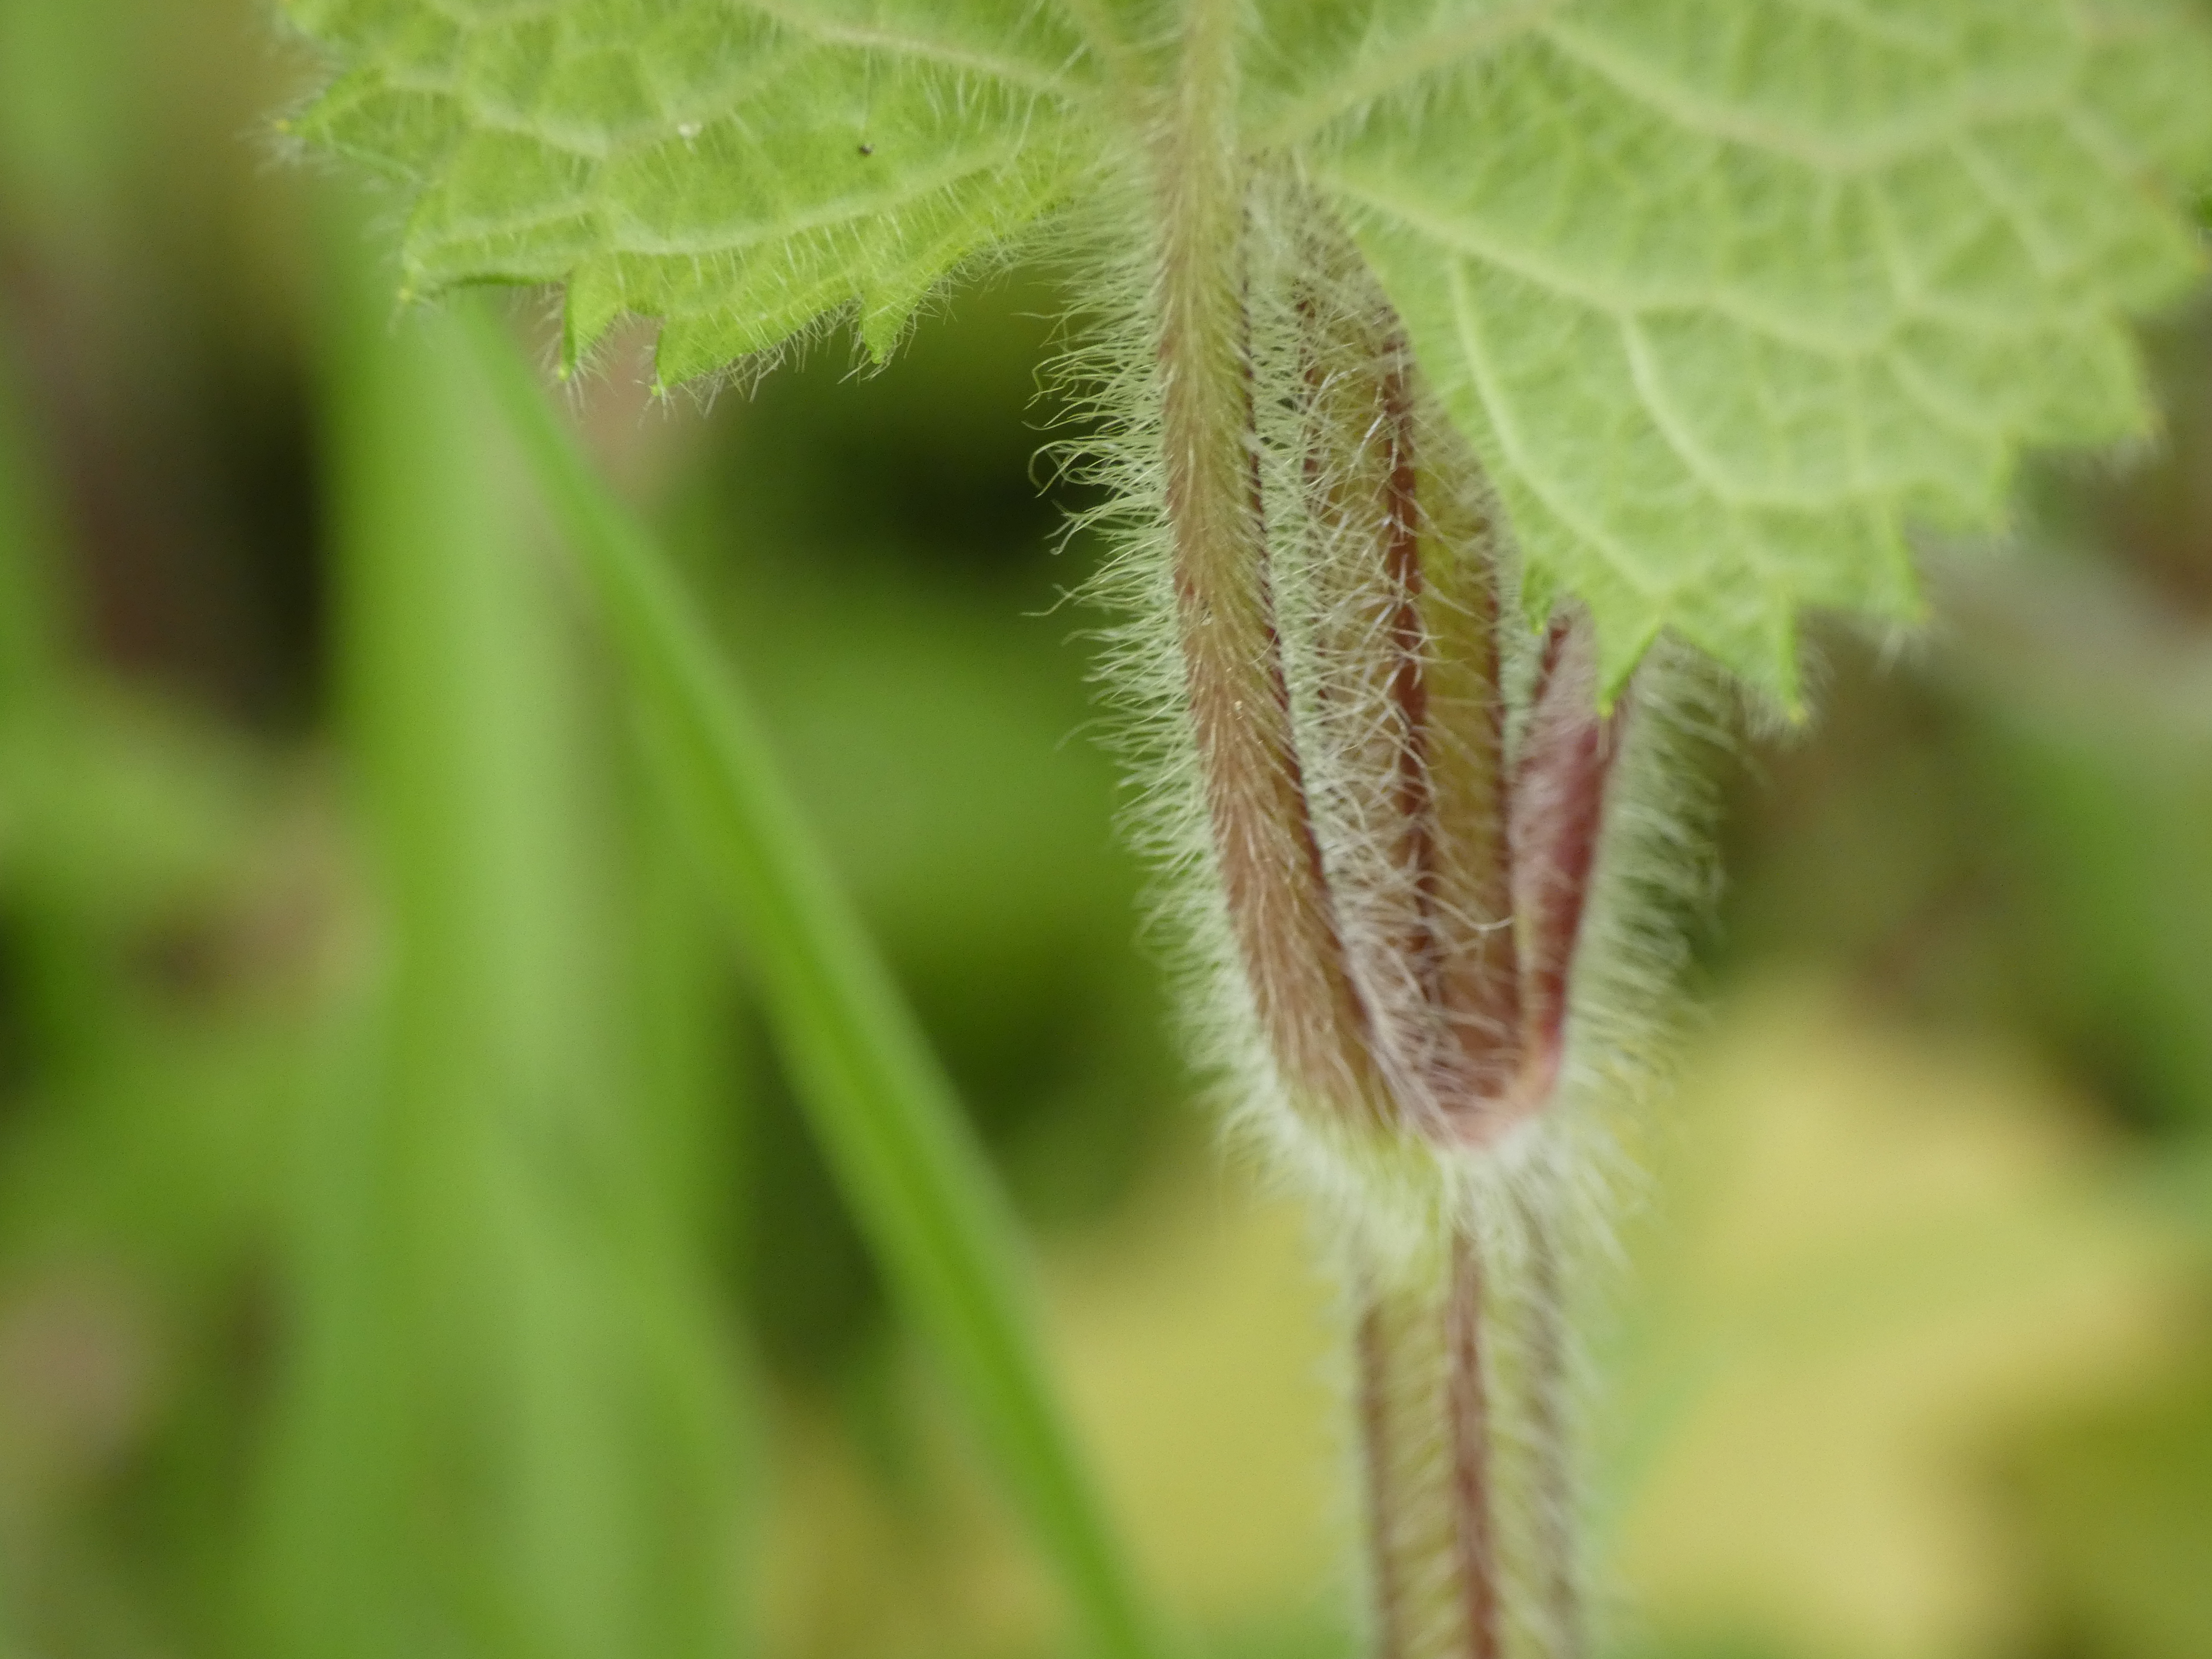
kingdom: Plantae
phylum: Tracheophyta
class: Magnoliopsida
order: Lamiales
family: Lamiaceae
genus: Stachys
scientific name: Stachys sylvatica
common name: Skov-galtetand
